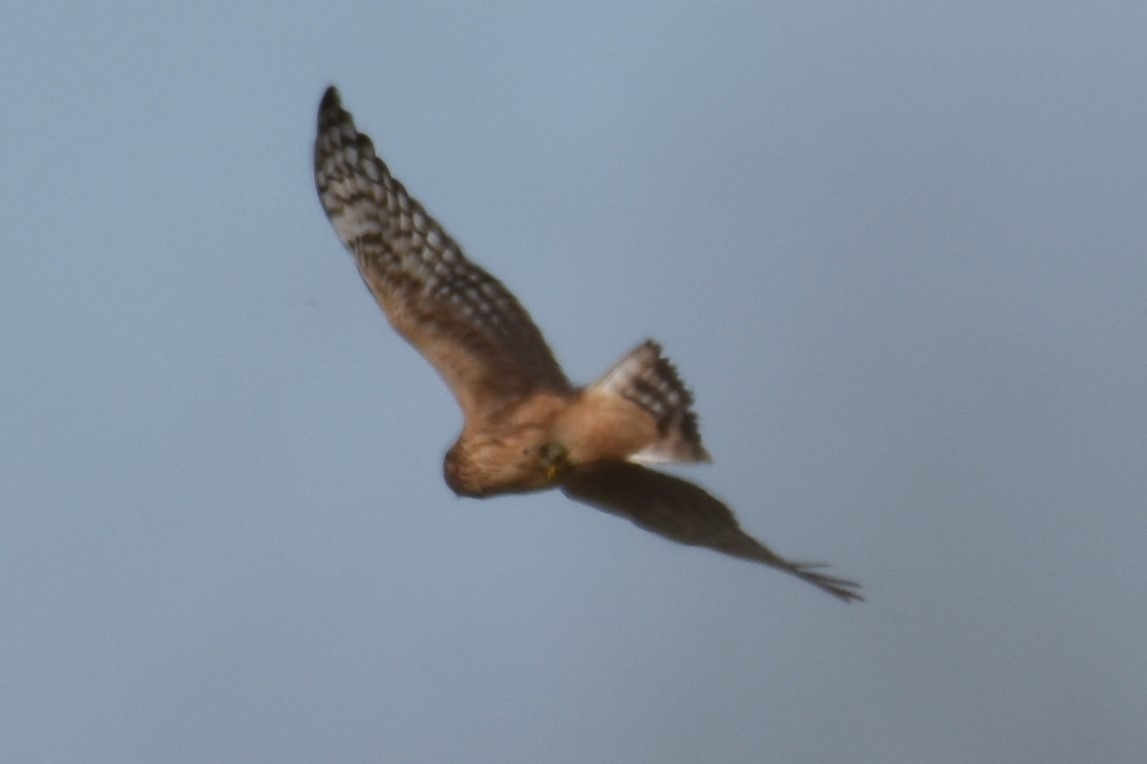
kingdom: Animalia
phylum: Chordata
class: Aves
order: Accipitriformes
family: Accipitridae
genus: Circus
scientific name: Circus cyaneus
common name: Blå kærhøg
